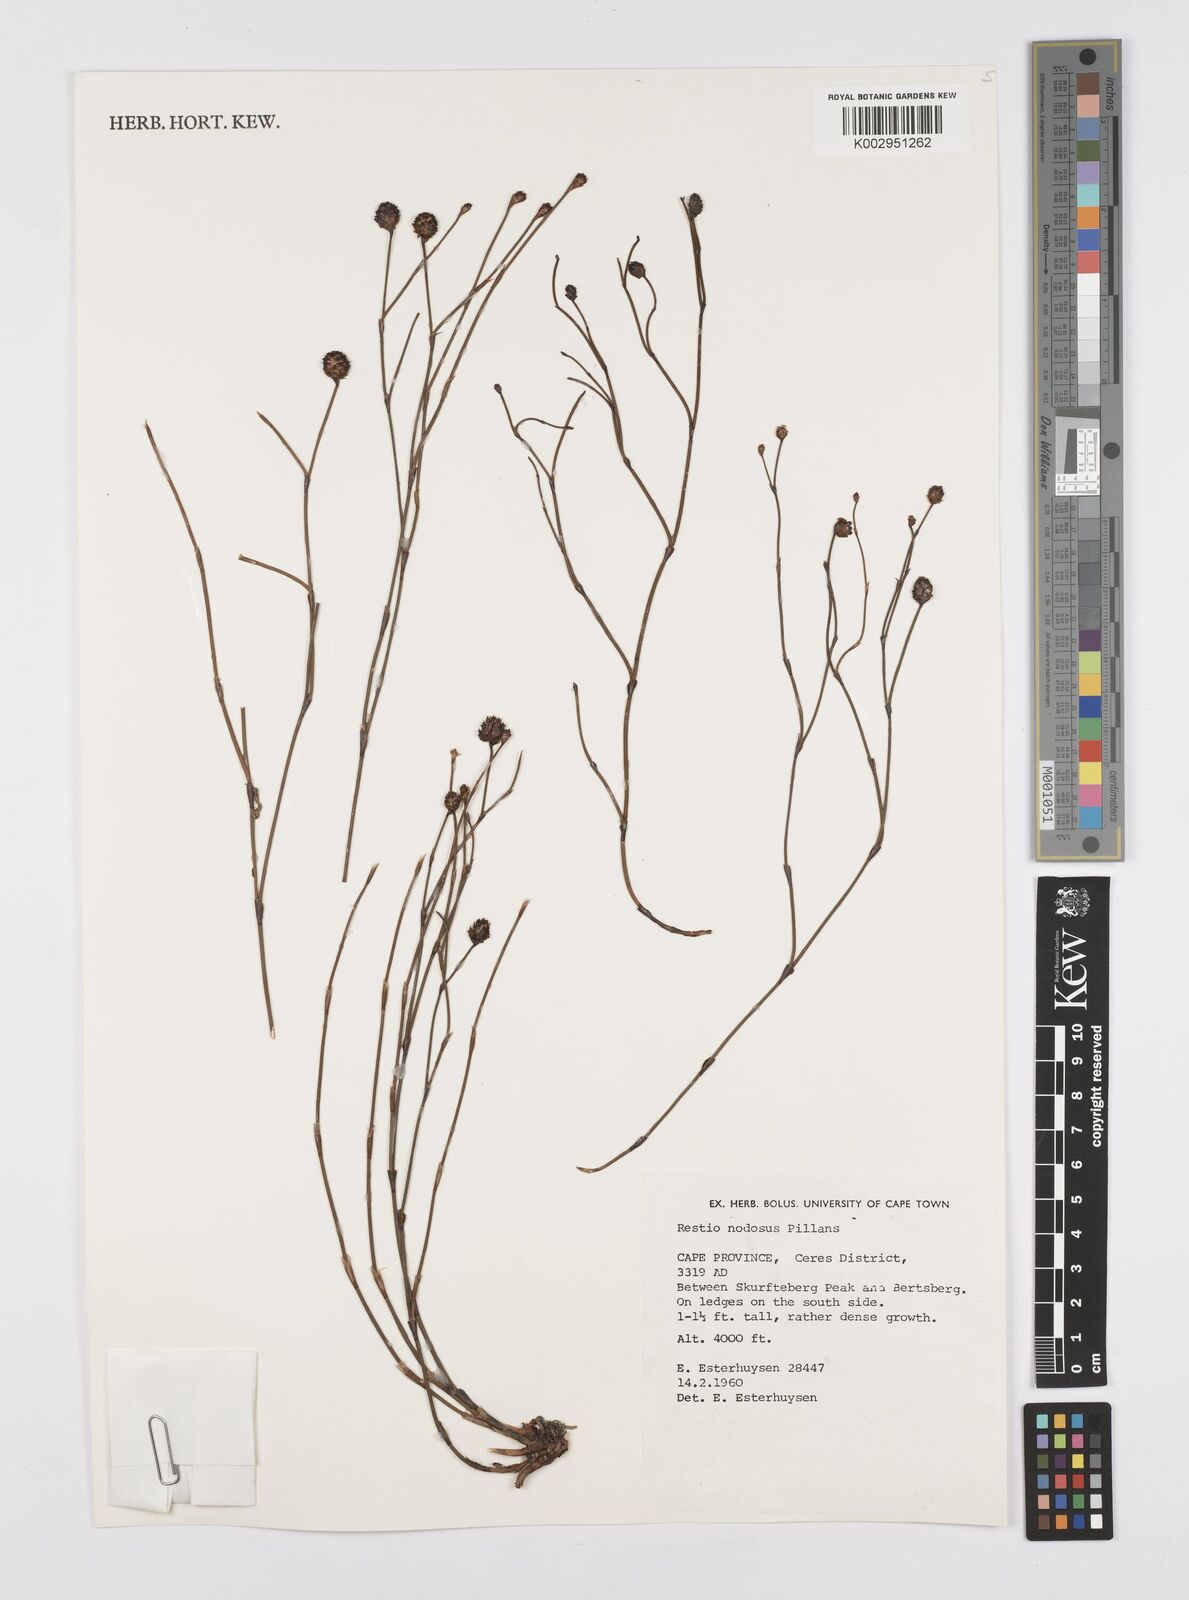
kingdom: Plantae
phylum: Tracheophyta
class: Liliopsida
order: Poales
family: Restionaceae
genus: Restio
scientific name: Restio nodosus
